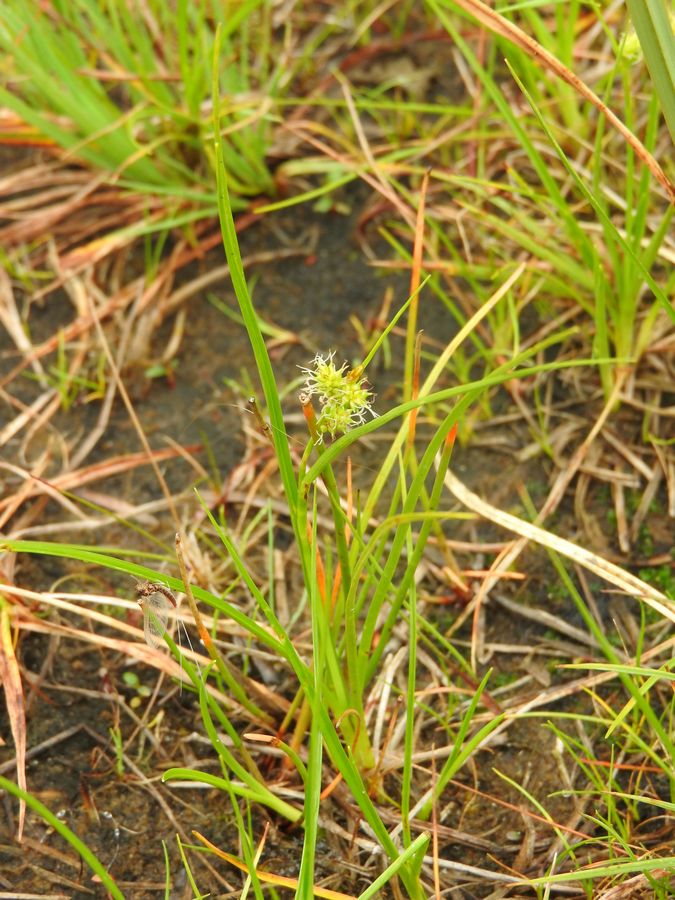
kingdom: Plantae
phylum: Tracheophyta
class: Liliopsida
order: Poales
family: Cyperaceae
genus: Carex
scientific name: Carex oederi
